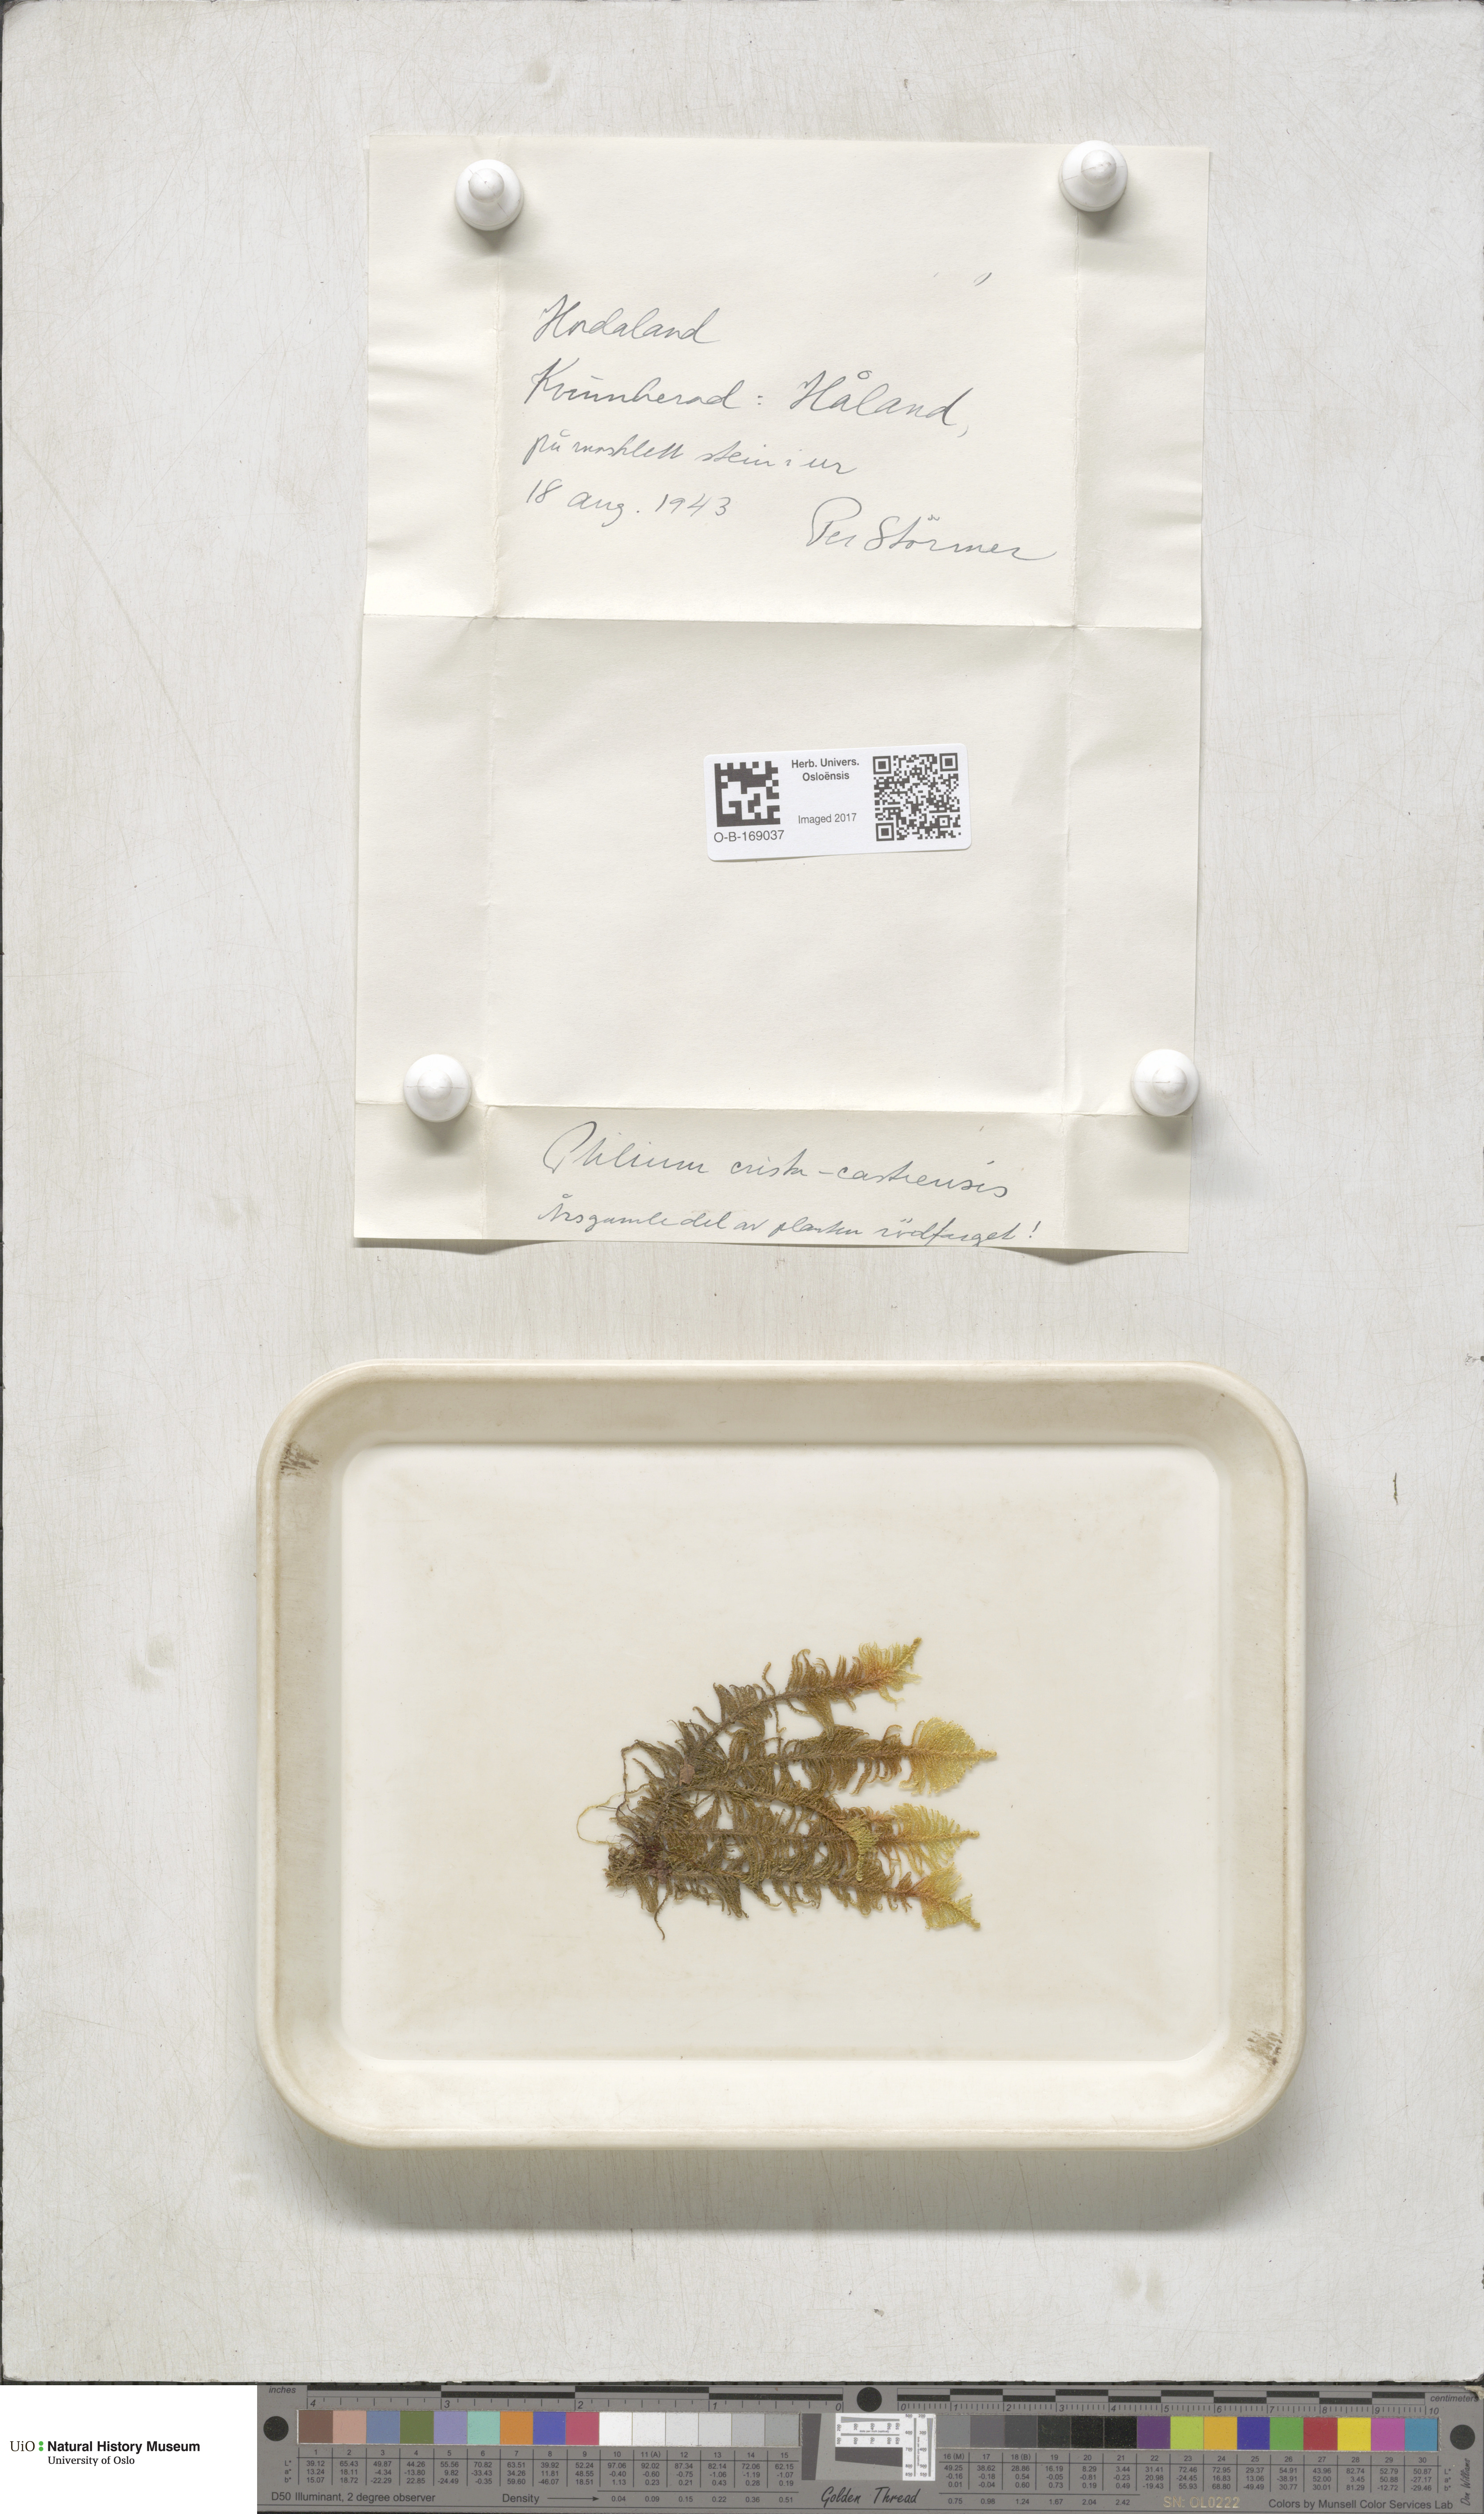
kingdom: Plantae
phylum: Bryophyta
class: Bryopsida
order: Hypnales
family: Pylaisiaceae
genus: Ptilium
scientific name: Ptilium crista-castrensis
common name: Knight's plume moss
